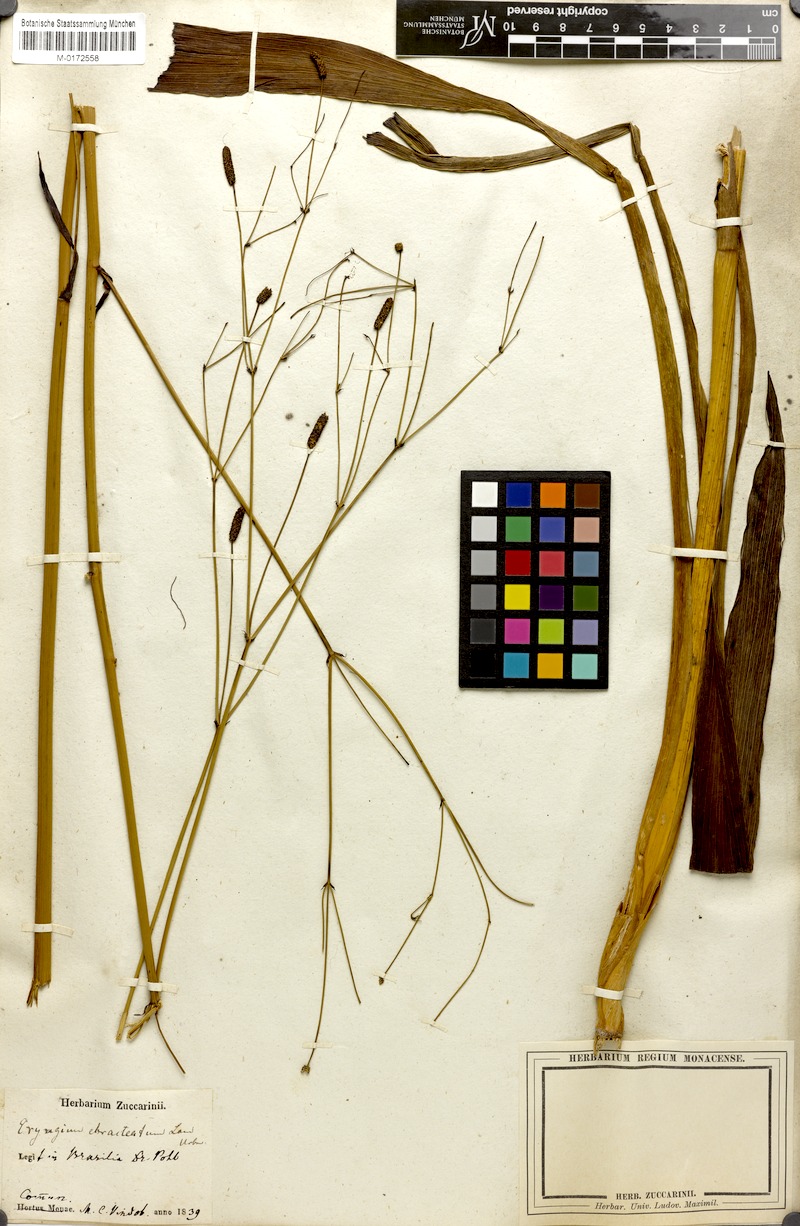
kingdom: Plantae
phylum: Tracheophyta
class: Magnoliopsida
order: Apiales
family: Apiaceae
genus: Eryngium
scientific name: Eryngium ebracteatum
